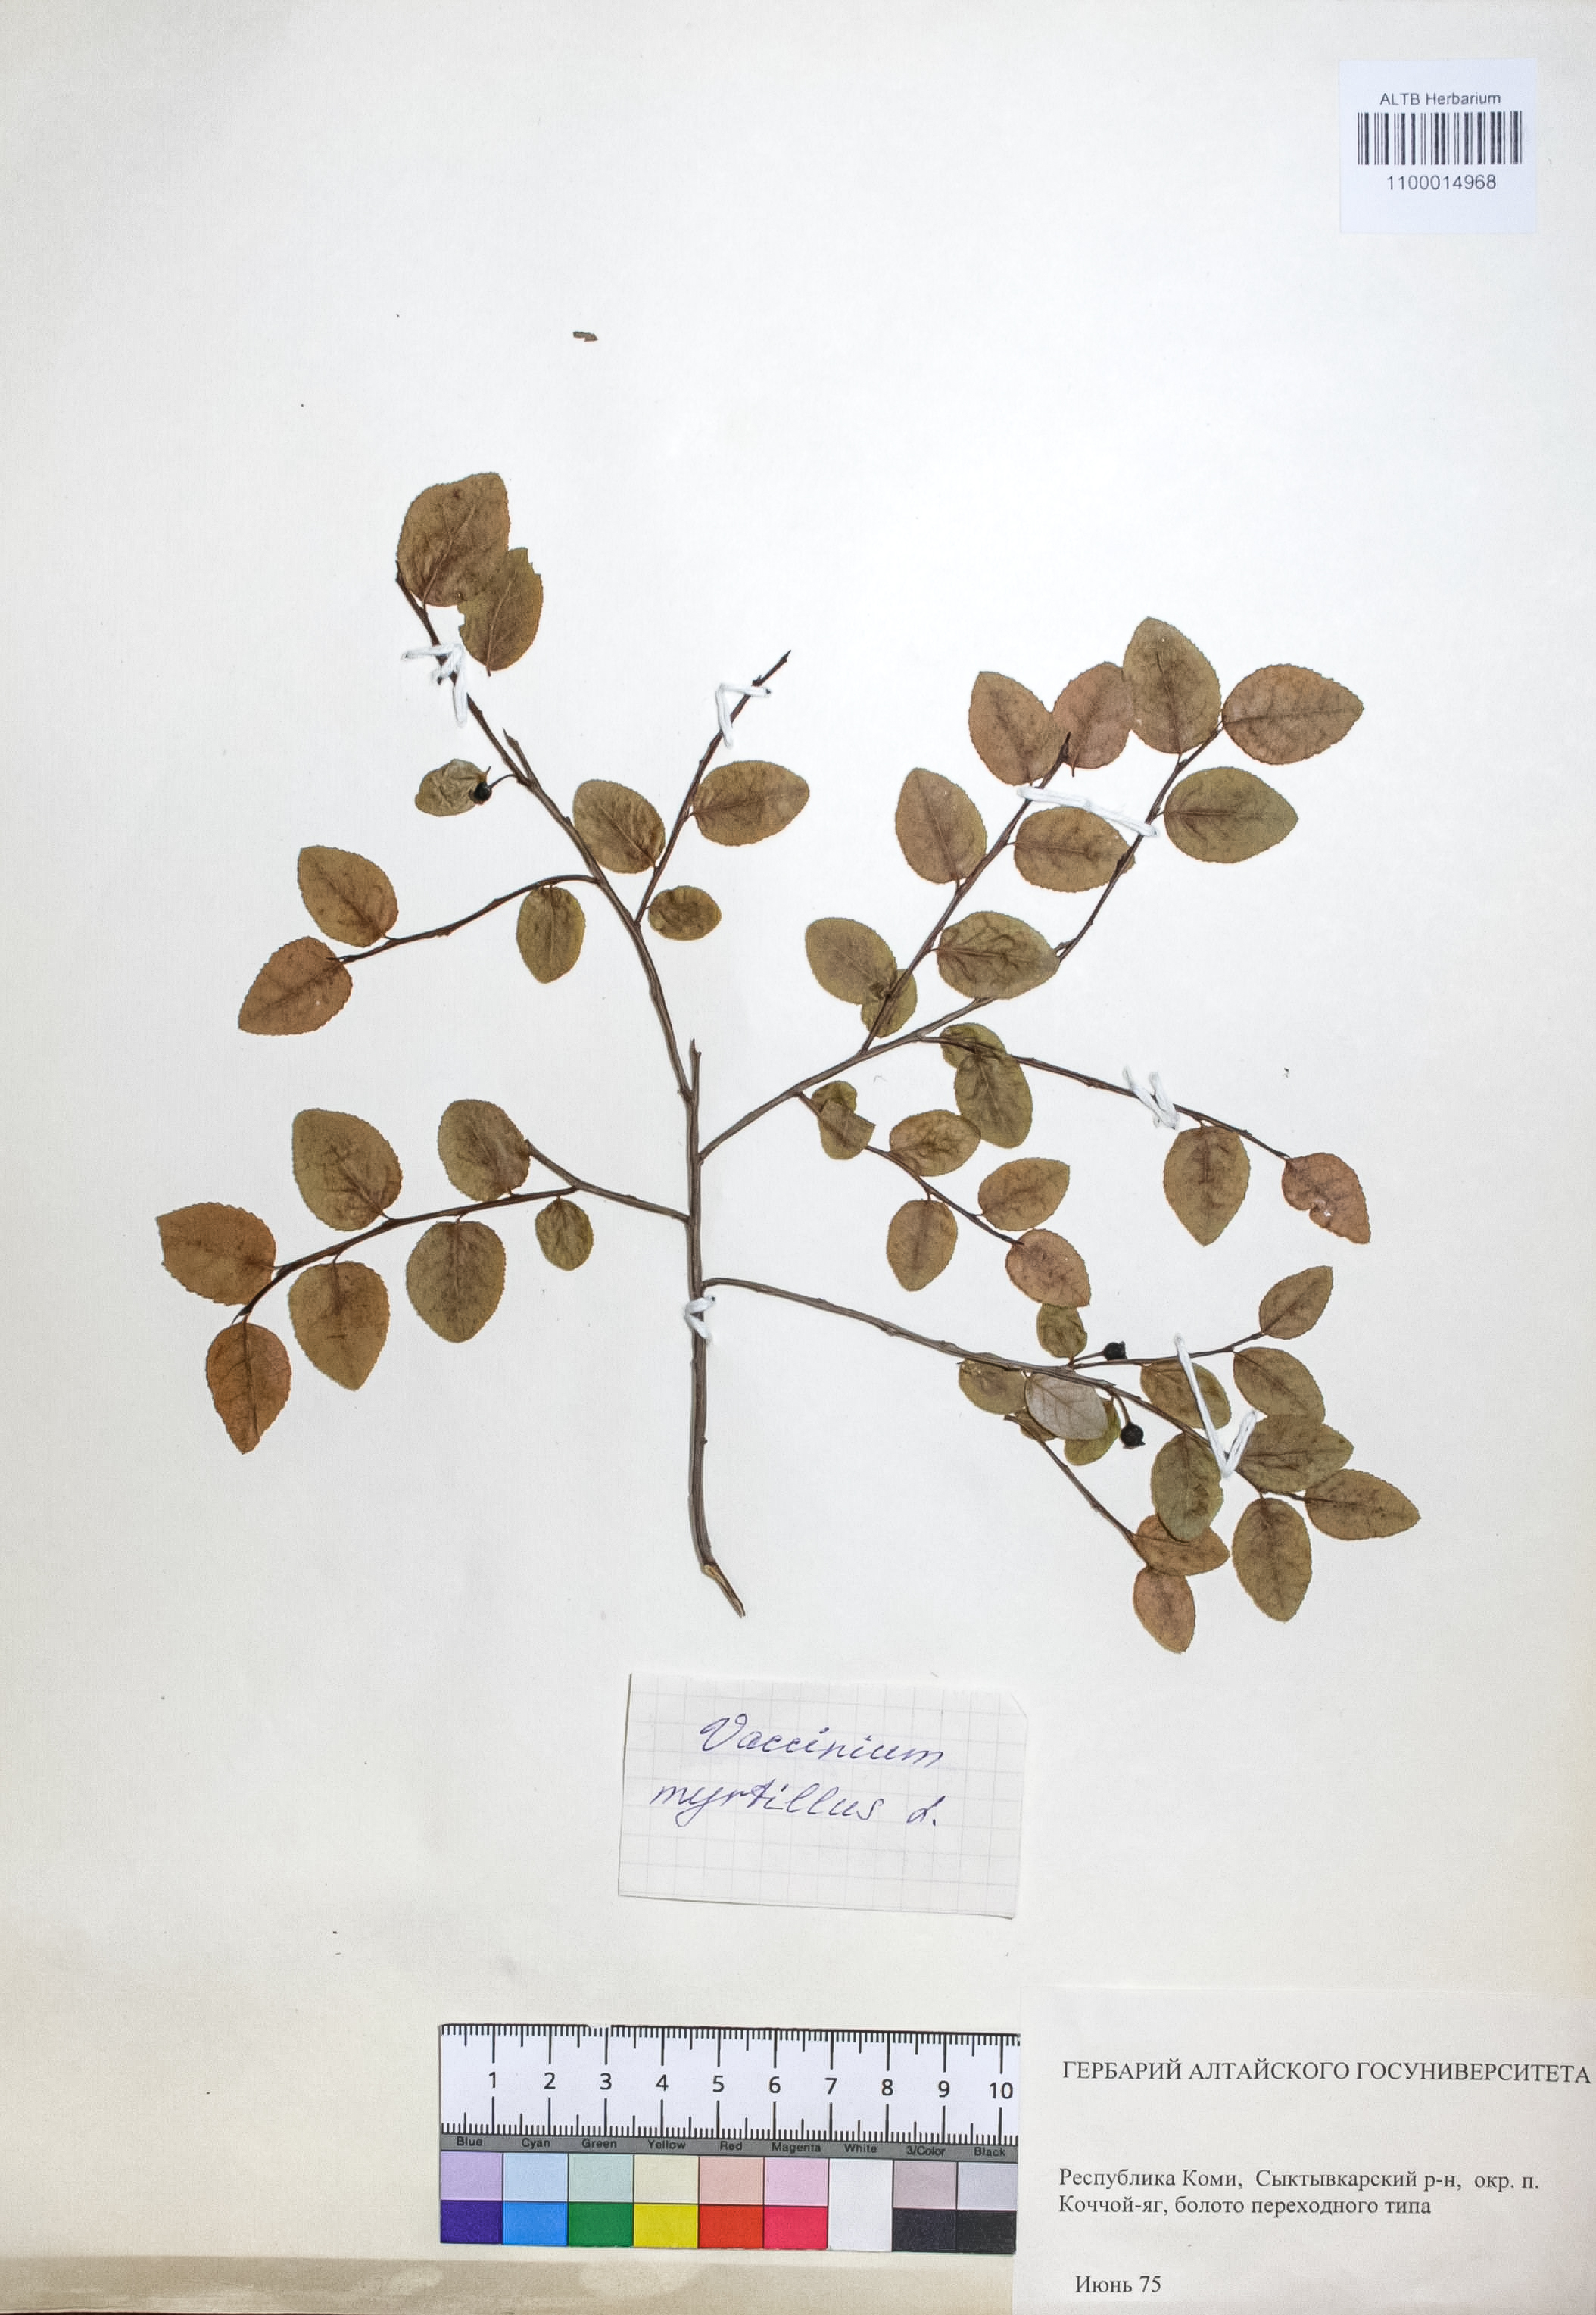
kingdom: Plantae
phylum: Tracheophyta
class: Magnoliopsida
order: Ericales
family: Ericaceae
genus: Vaccinium
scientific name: Vaccinium myrtillus
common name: Bilberry
